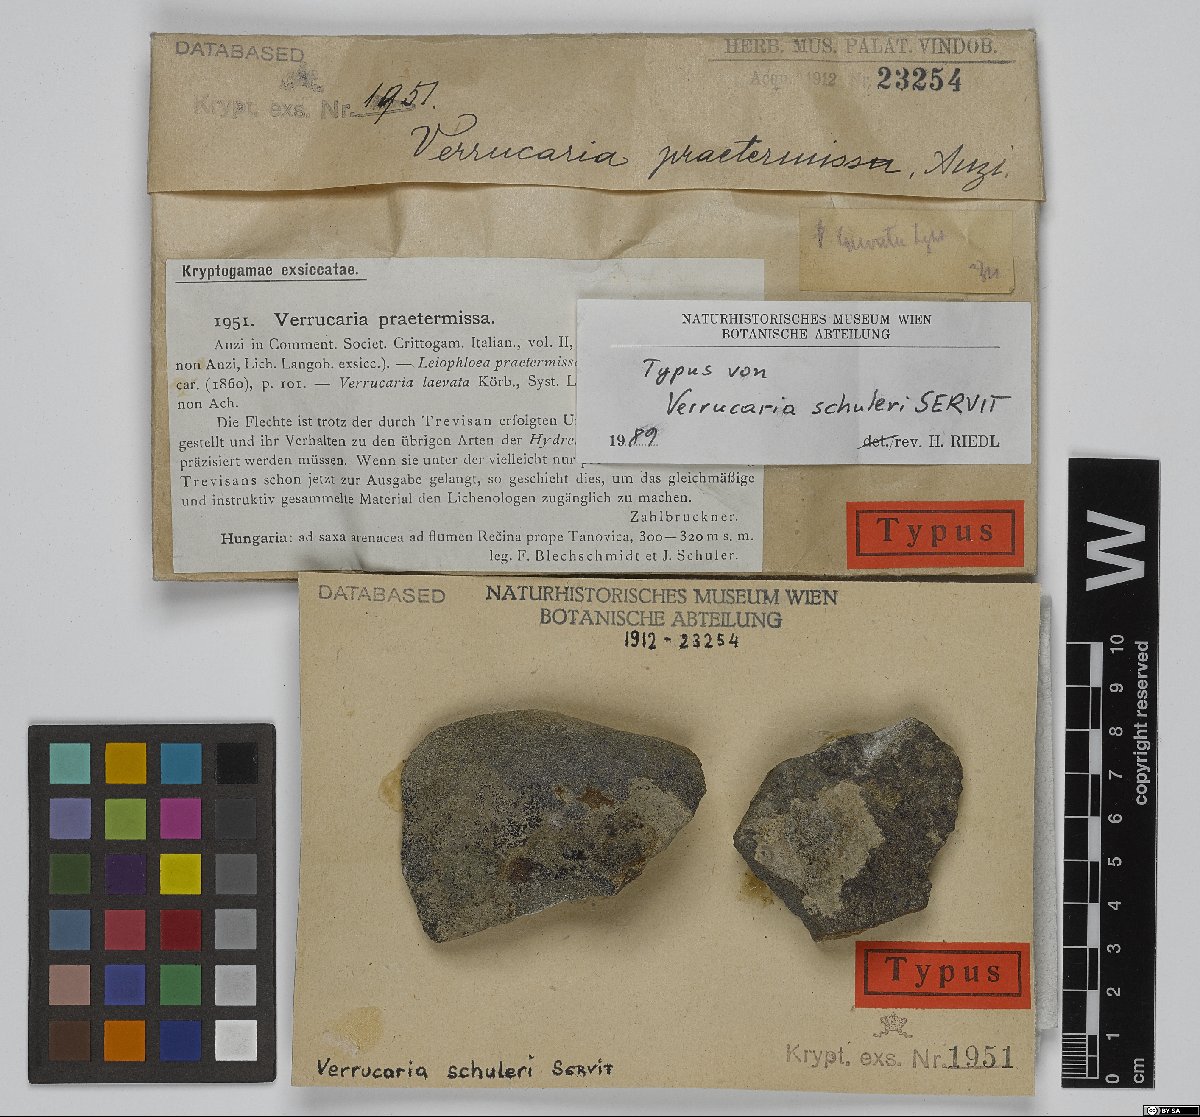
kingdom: Fungi
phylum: Ascomycota
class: Eurotiomycetes
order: Verrucariales
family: Verrucariaceae
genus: Verrucaria
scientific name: Verrucaria
